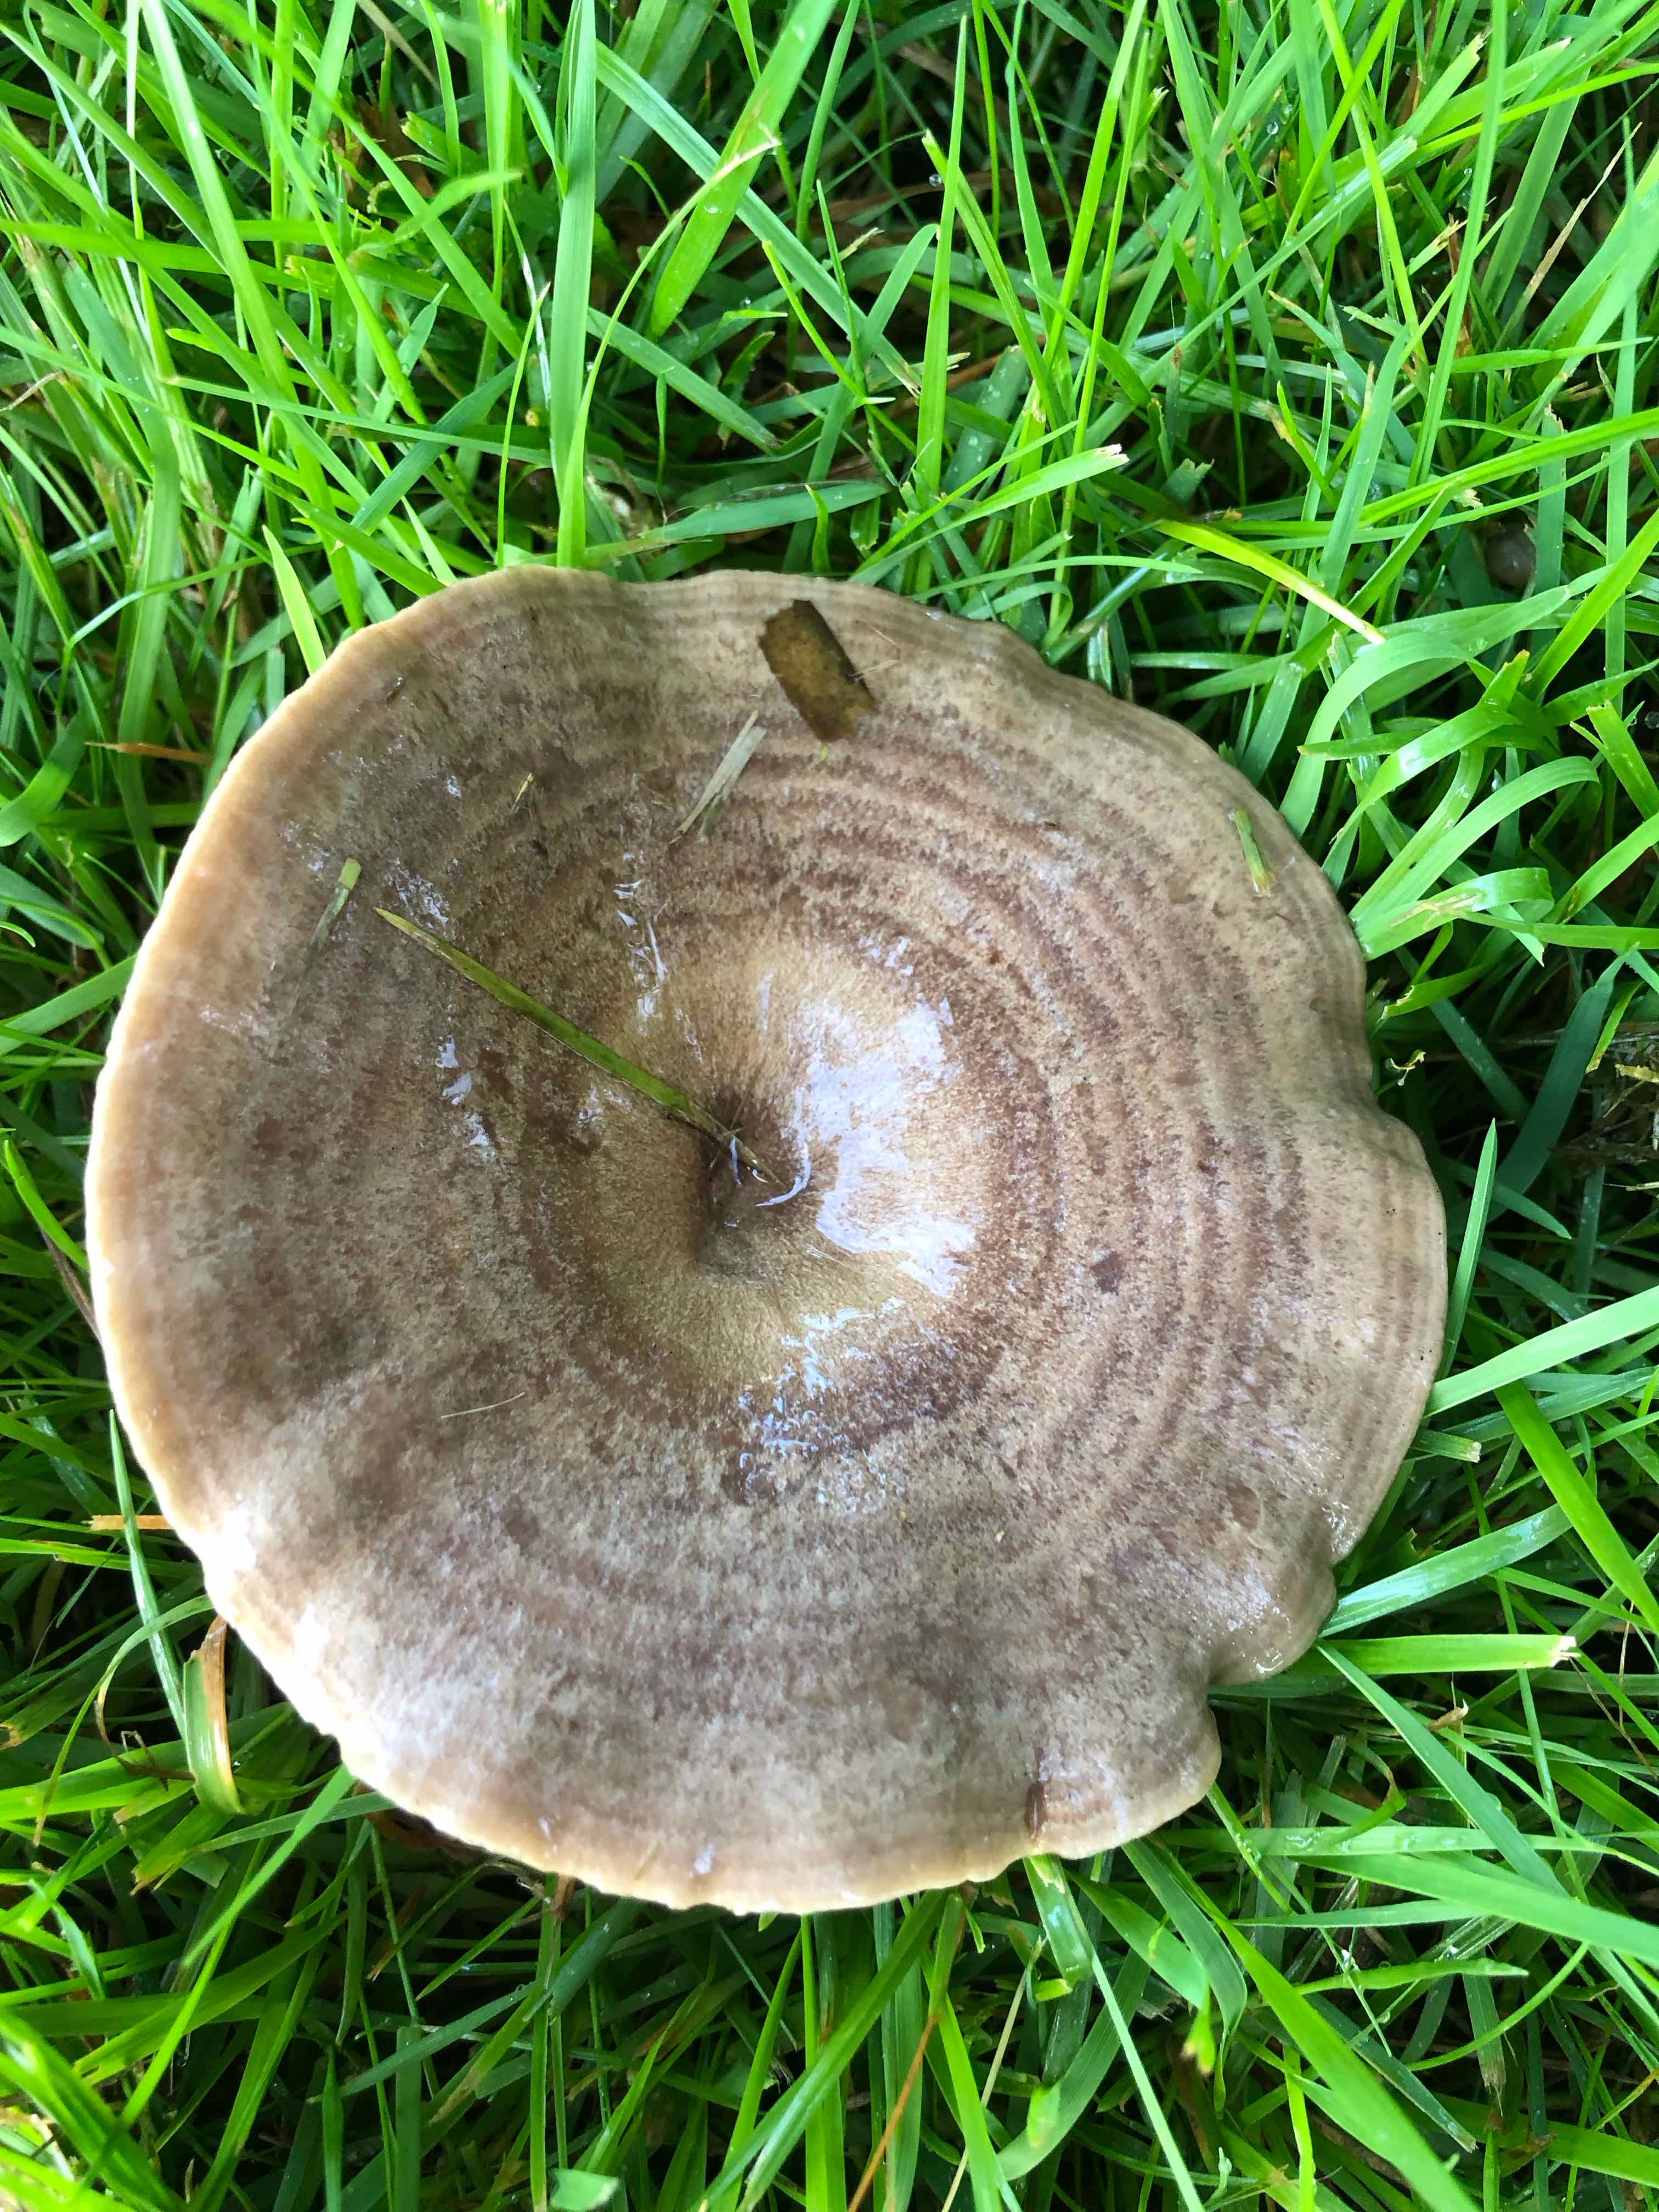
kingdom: Fungi
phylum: Basidiomycota
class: Agaricomycetes
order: Russulales
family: Russulaceae
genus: Lactarius
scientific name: Lactarius circellatus
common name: avnbøg-mælkehat
